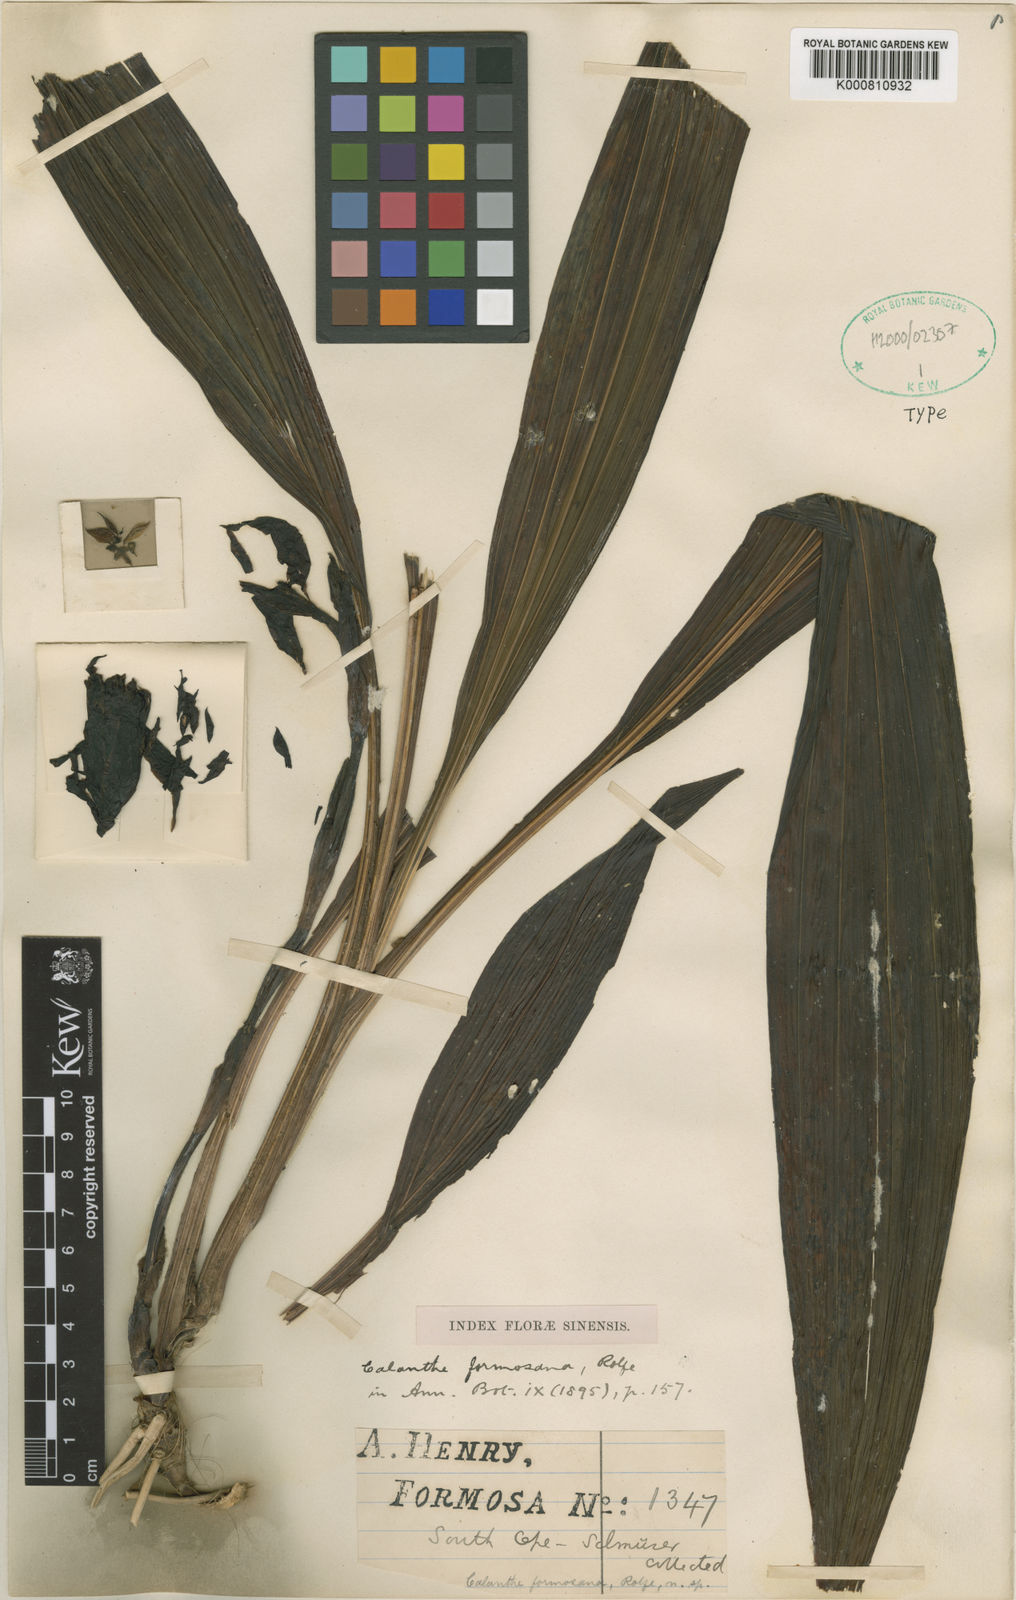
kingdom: Plantae
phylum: Tracheophyta
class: Liliopsida
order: Asparagales
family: Orchidaceae
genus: Calanthe
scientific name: Calanthe formosana
